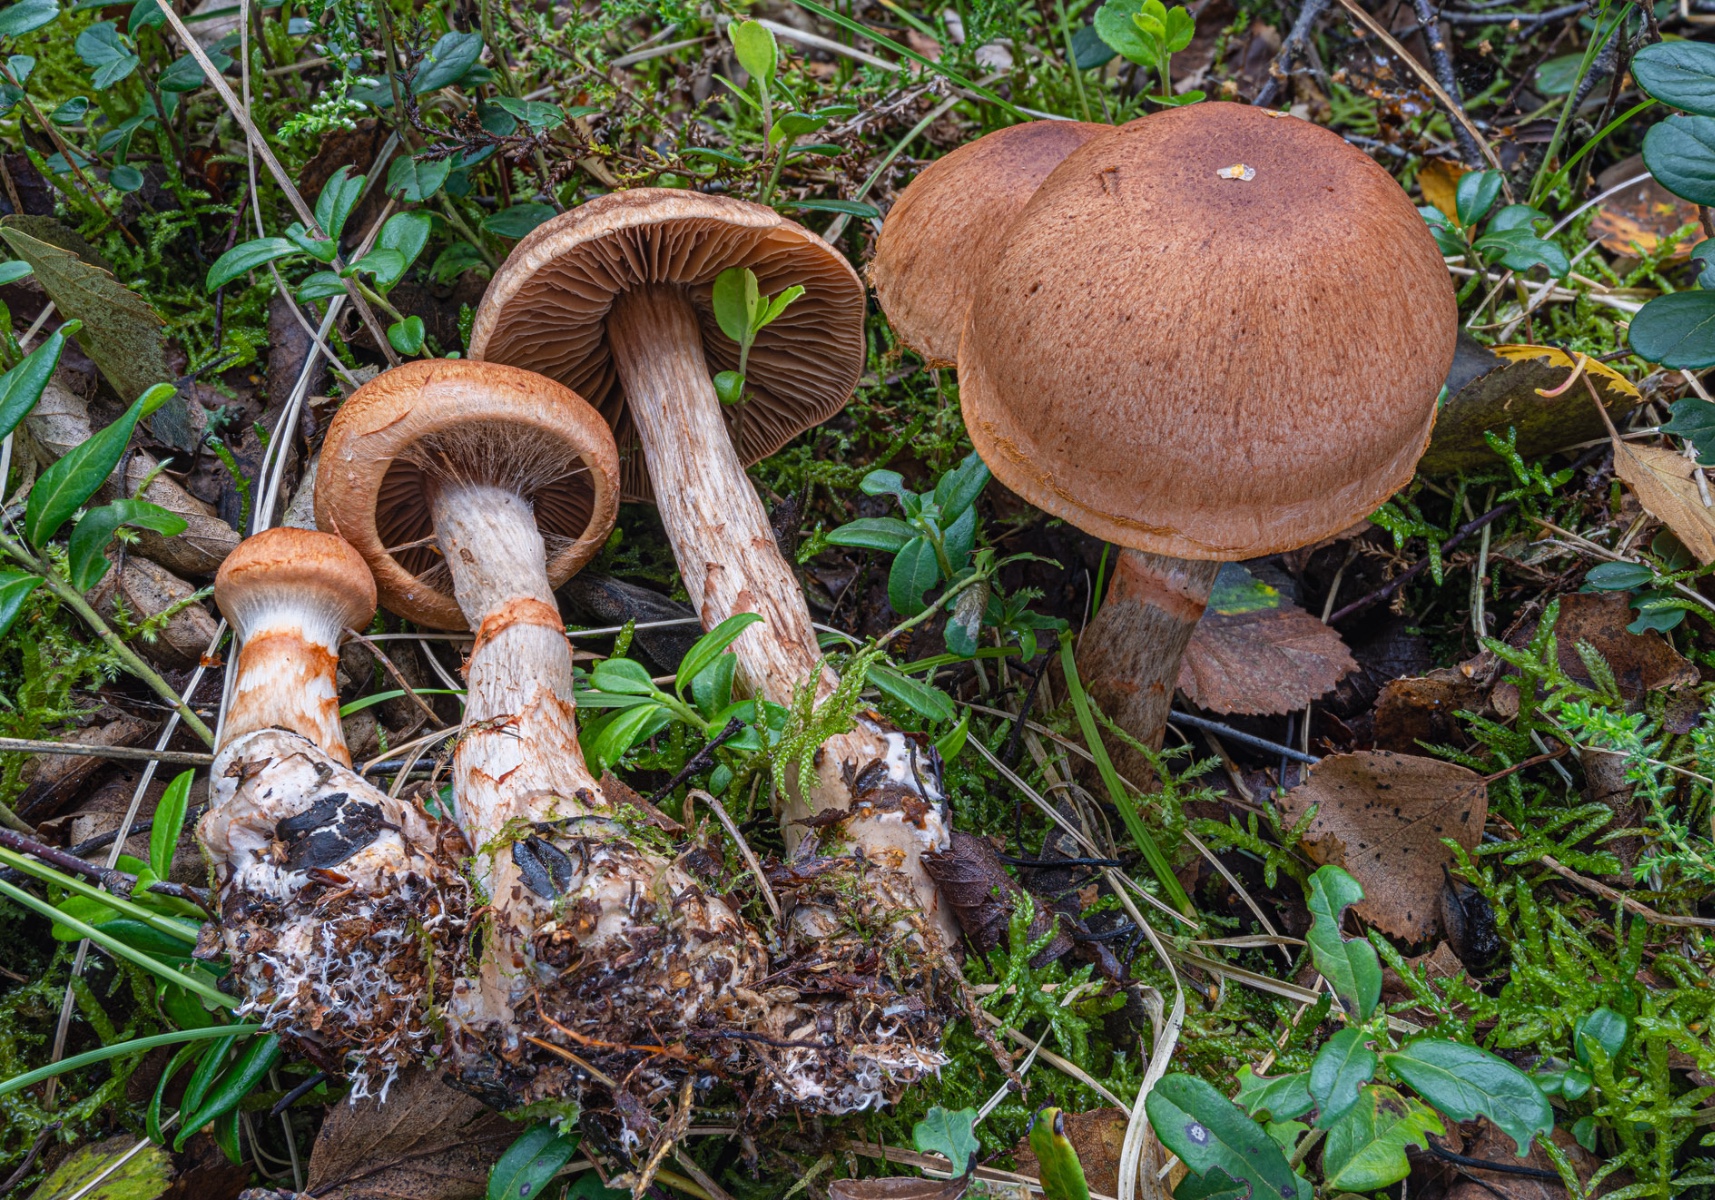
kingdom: Fungi
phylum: Basidiomycota
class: Agaricomycetes
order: Agaricales
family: Cortinariaceae
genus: Cortinarius
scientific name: Cortinarius armillatus
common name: cinnoberbæltet slørhat
